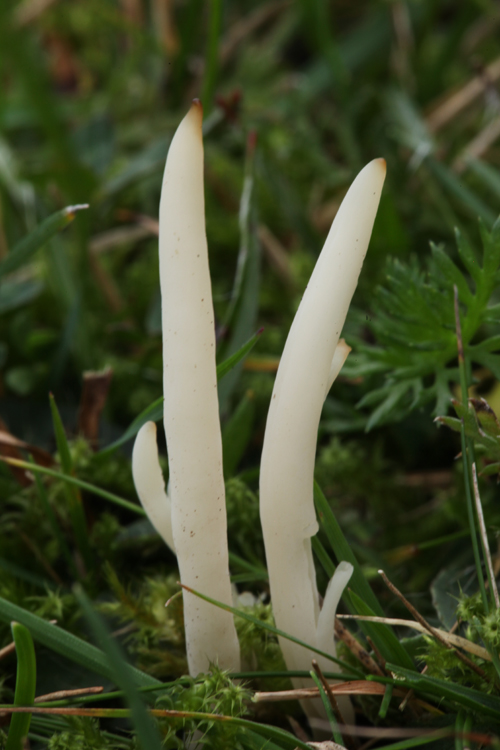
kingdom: Fungi
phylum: Basidiomycota
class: Agaricomycetes
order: Agaricales
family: Clavariaceae
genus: Clavaria
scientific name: Clavaria falcata
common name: hvid køllesvamp
